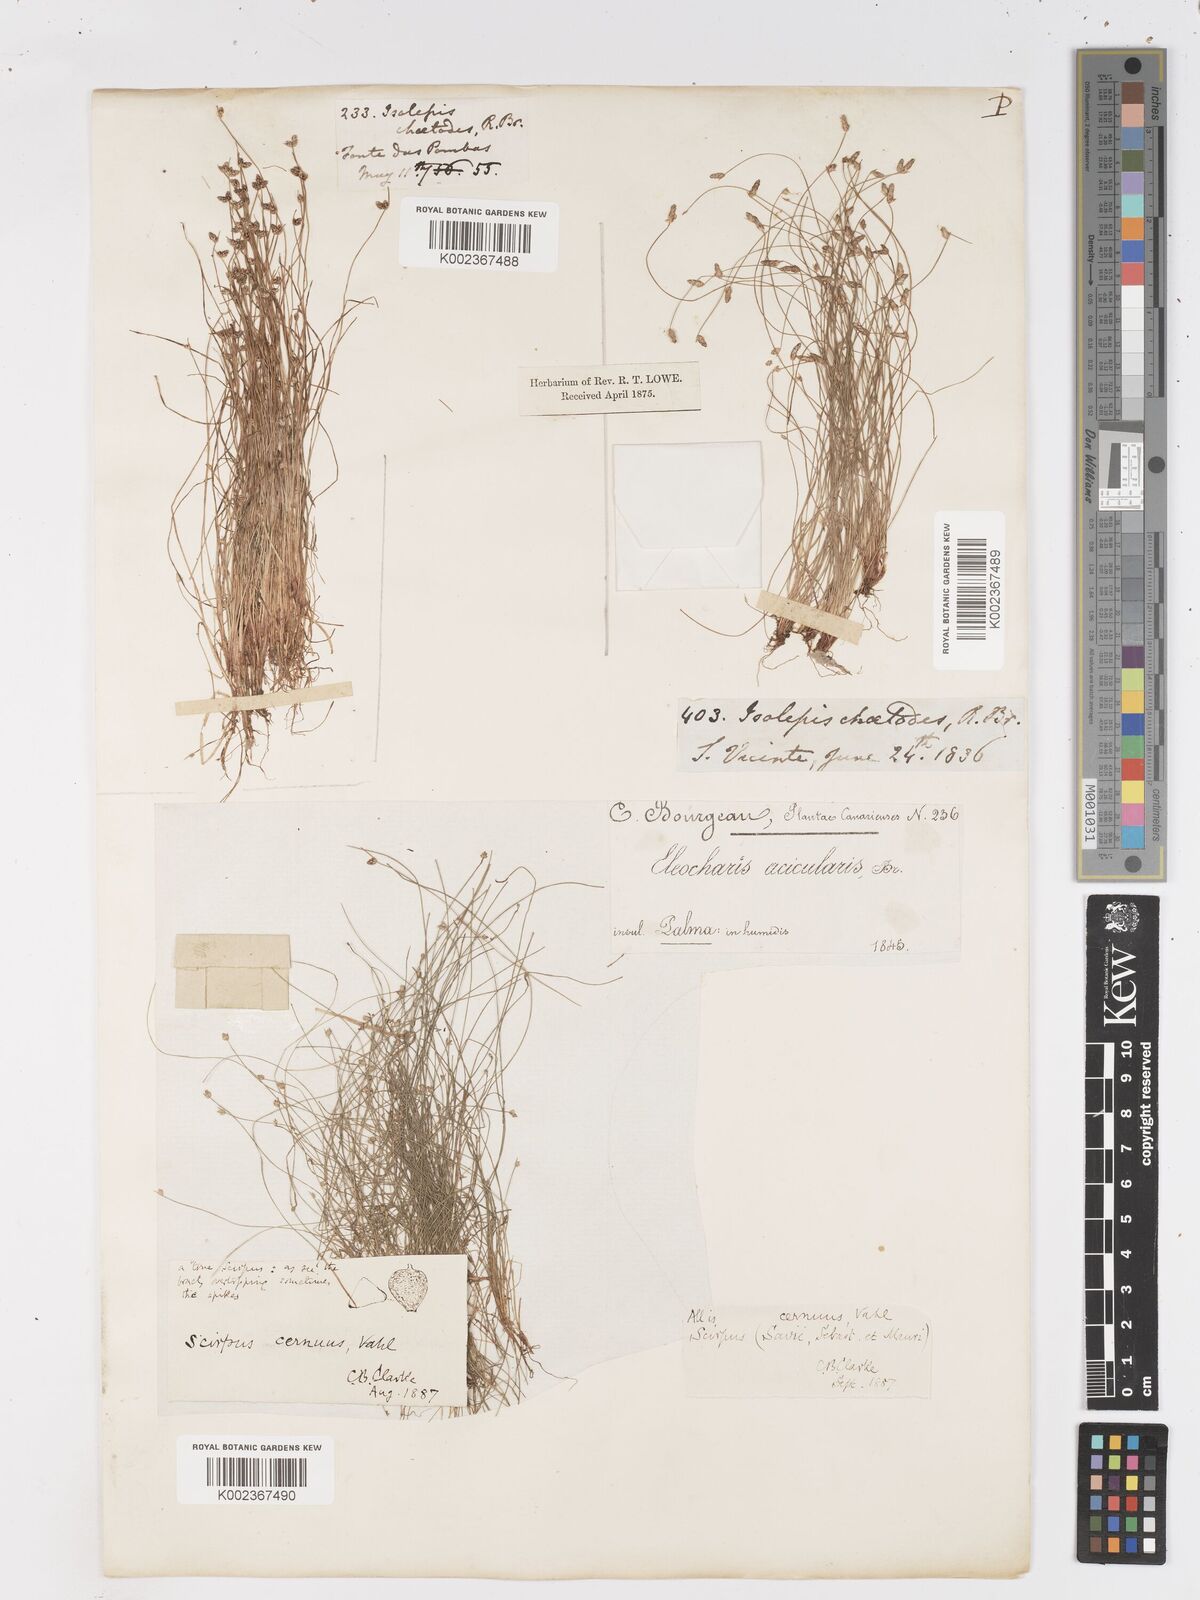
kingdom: Plantae
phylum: Tracheophyta
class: Liliopsida
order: Poales
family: Cyperaceae
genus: Isolepis
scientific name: Isolepis cernua
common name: Slender club-rush
